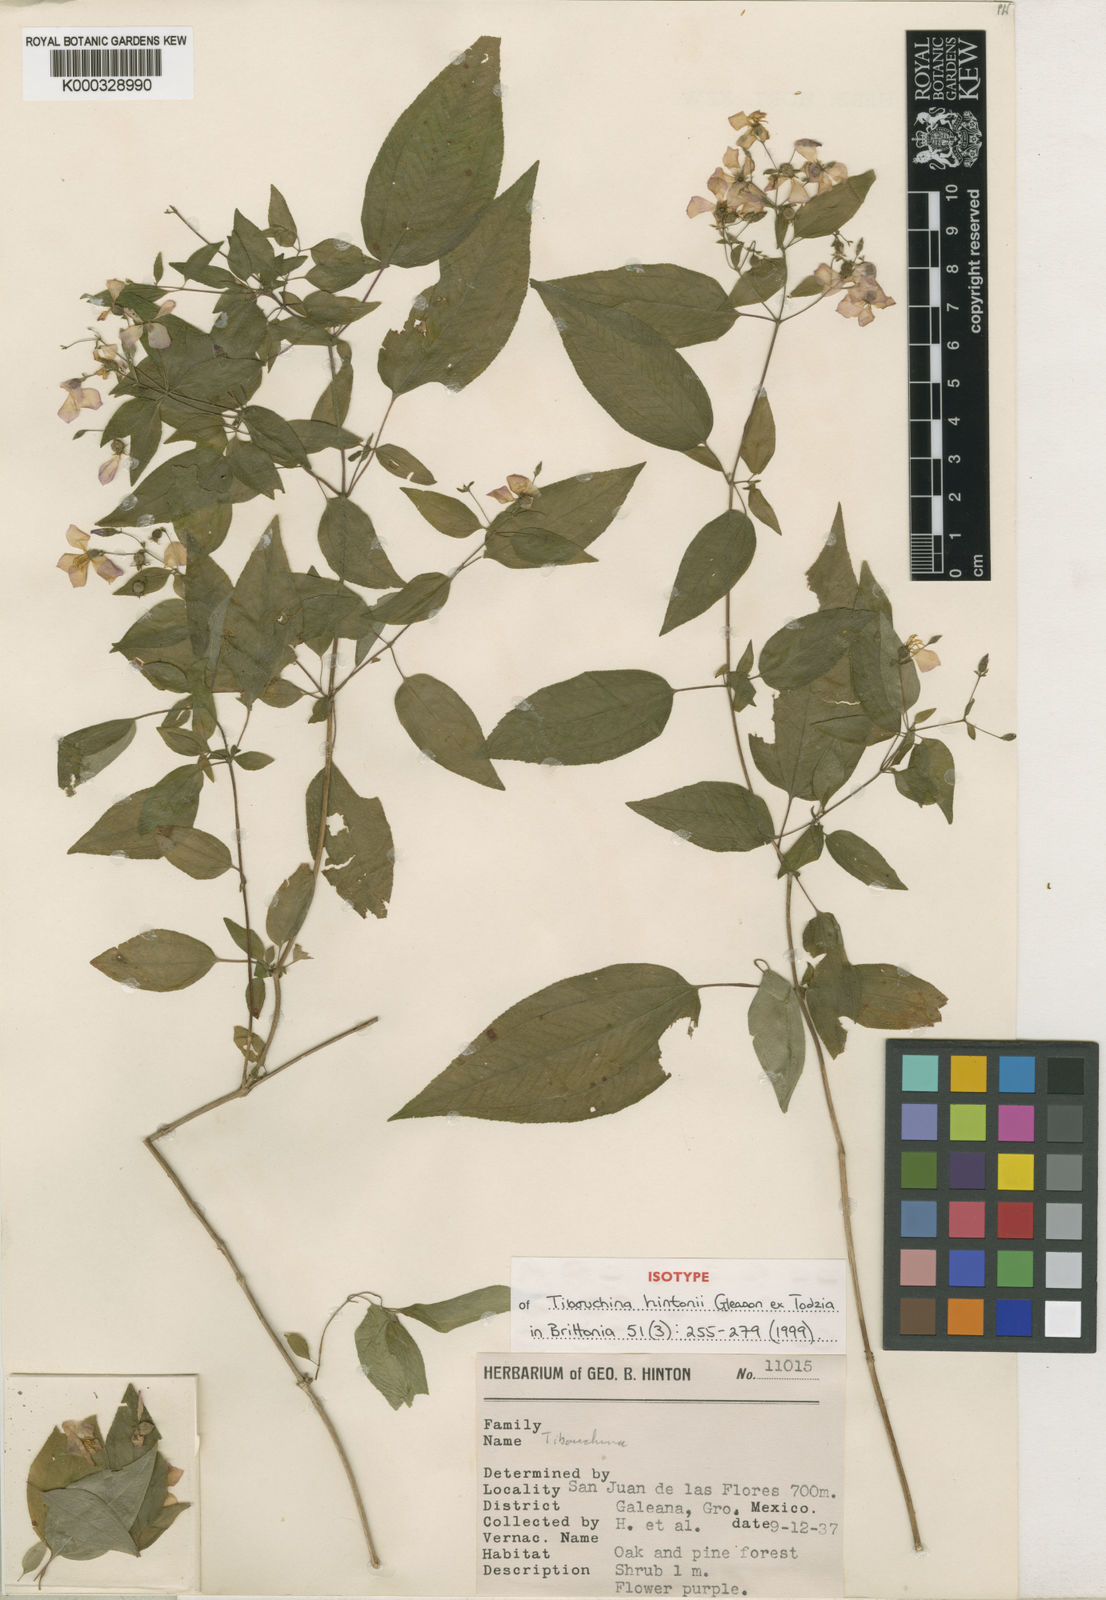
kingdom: Plantae
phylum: Tracheophyta
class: Magnoliopsida
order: Myrtales
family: Melastomataceae
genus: Chaetogastra
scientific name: Chaetogastra hintonii
